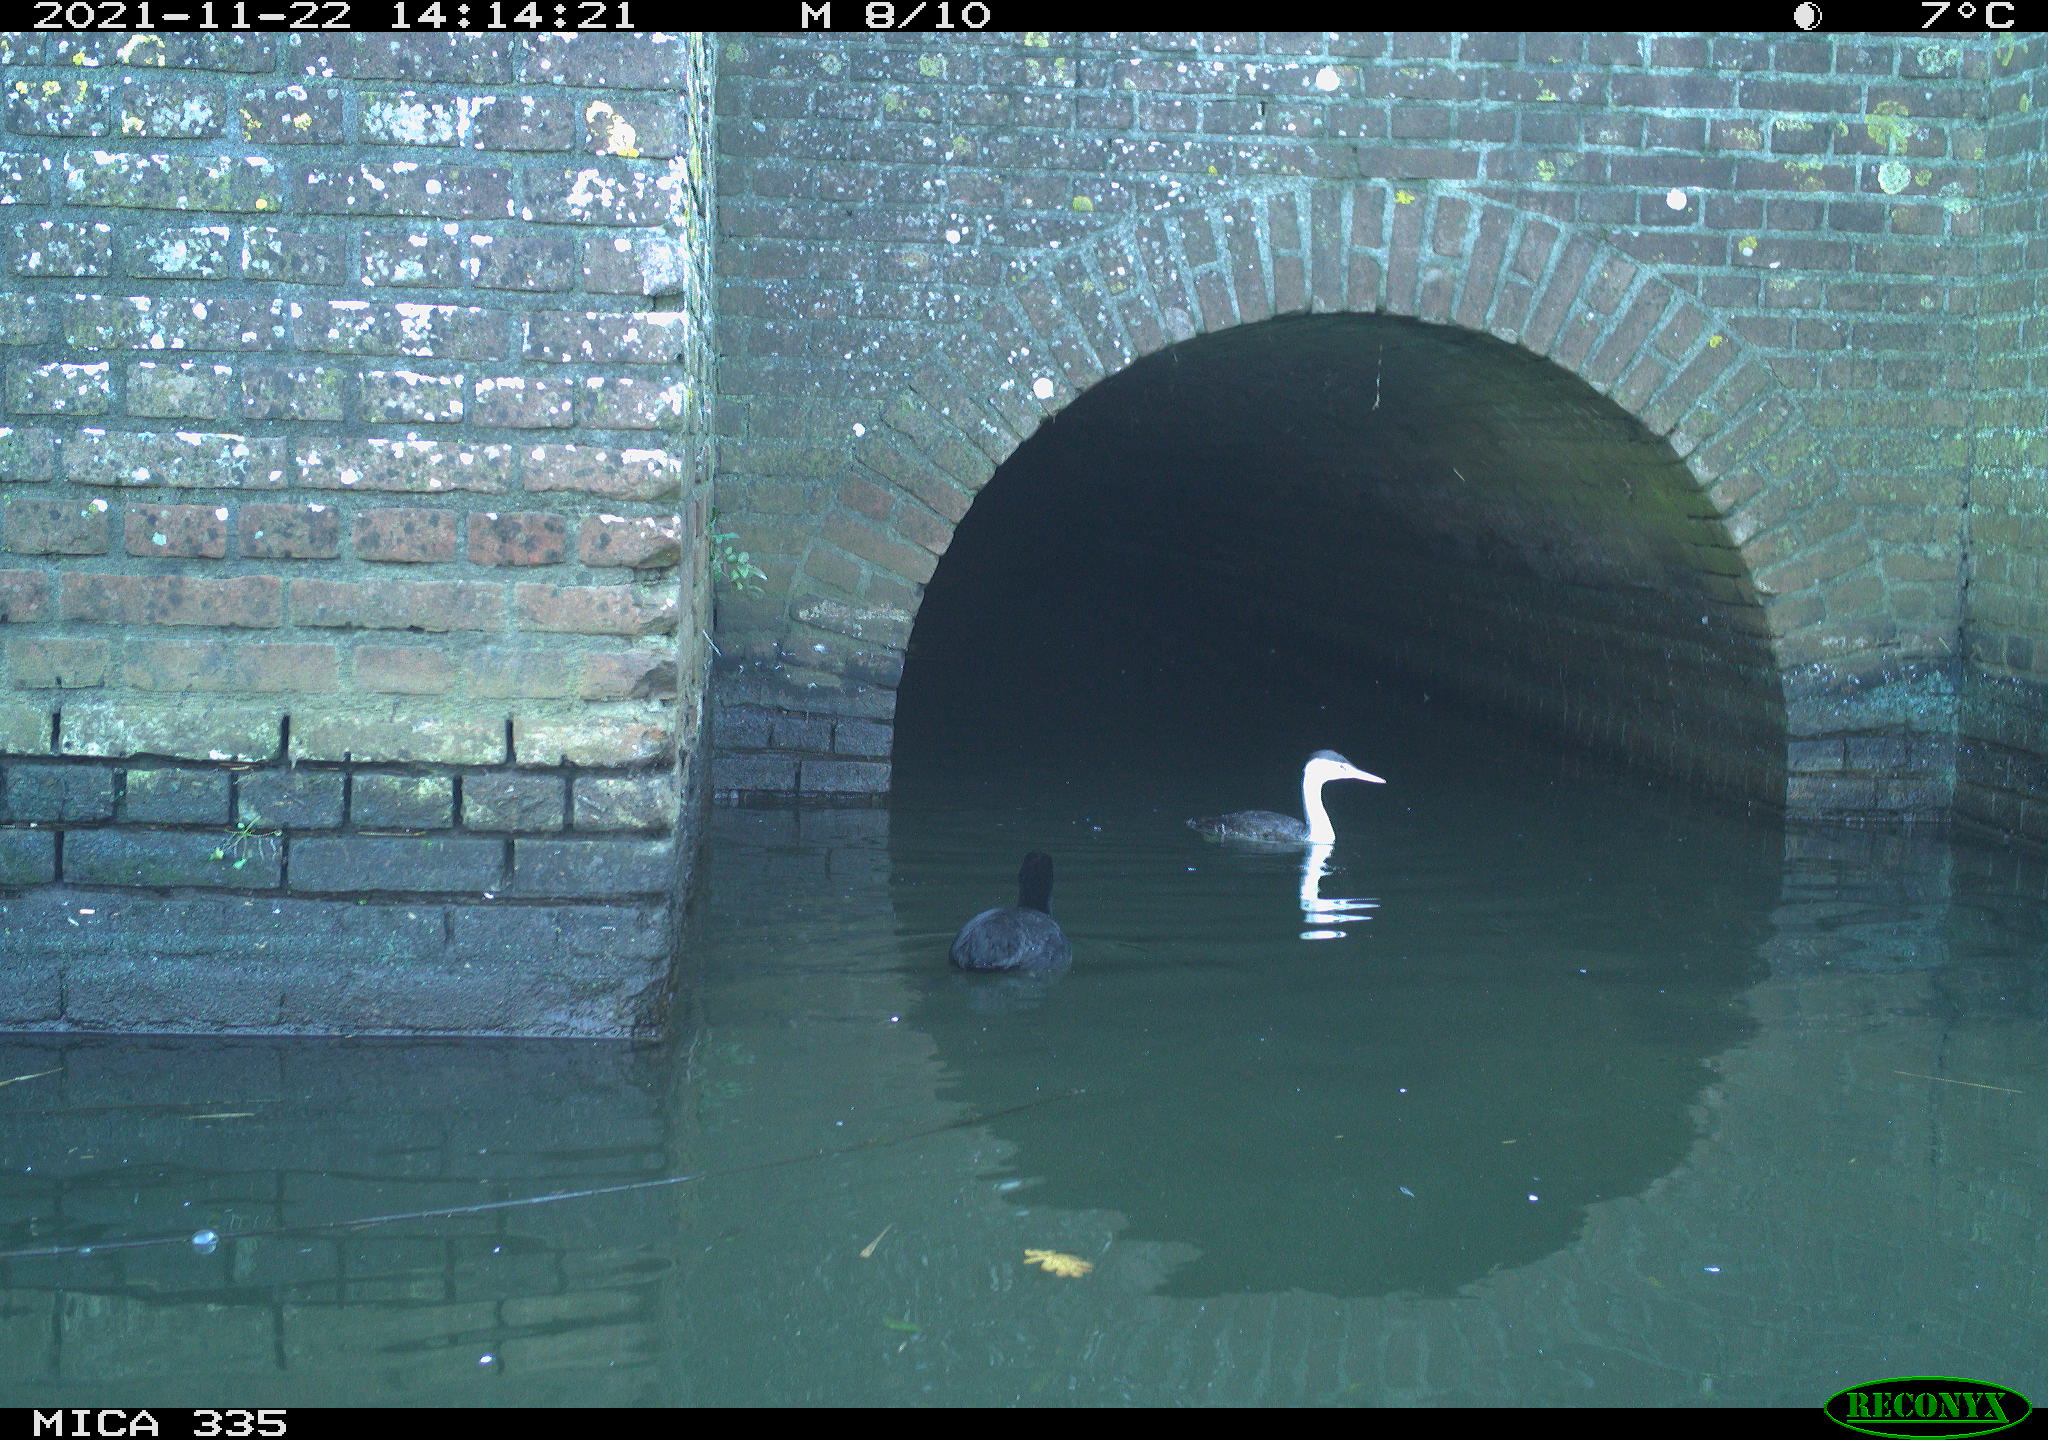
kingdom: Animalia
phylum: Chordata
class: Aves
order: Podicipediformes
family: Podicipedidae
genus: Podiceps
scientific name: Podiceps cristatus
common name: Great crested grebe
